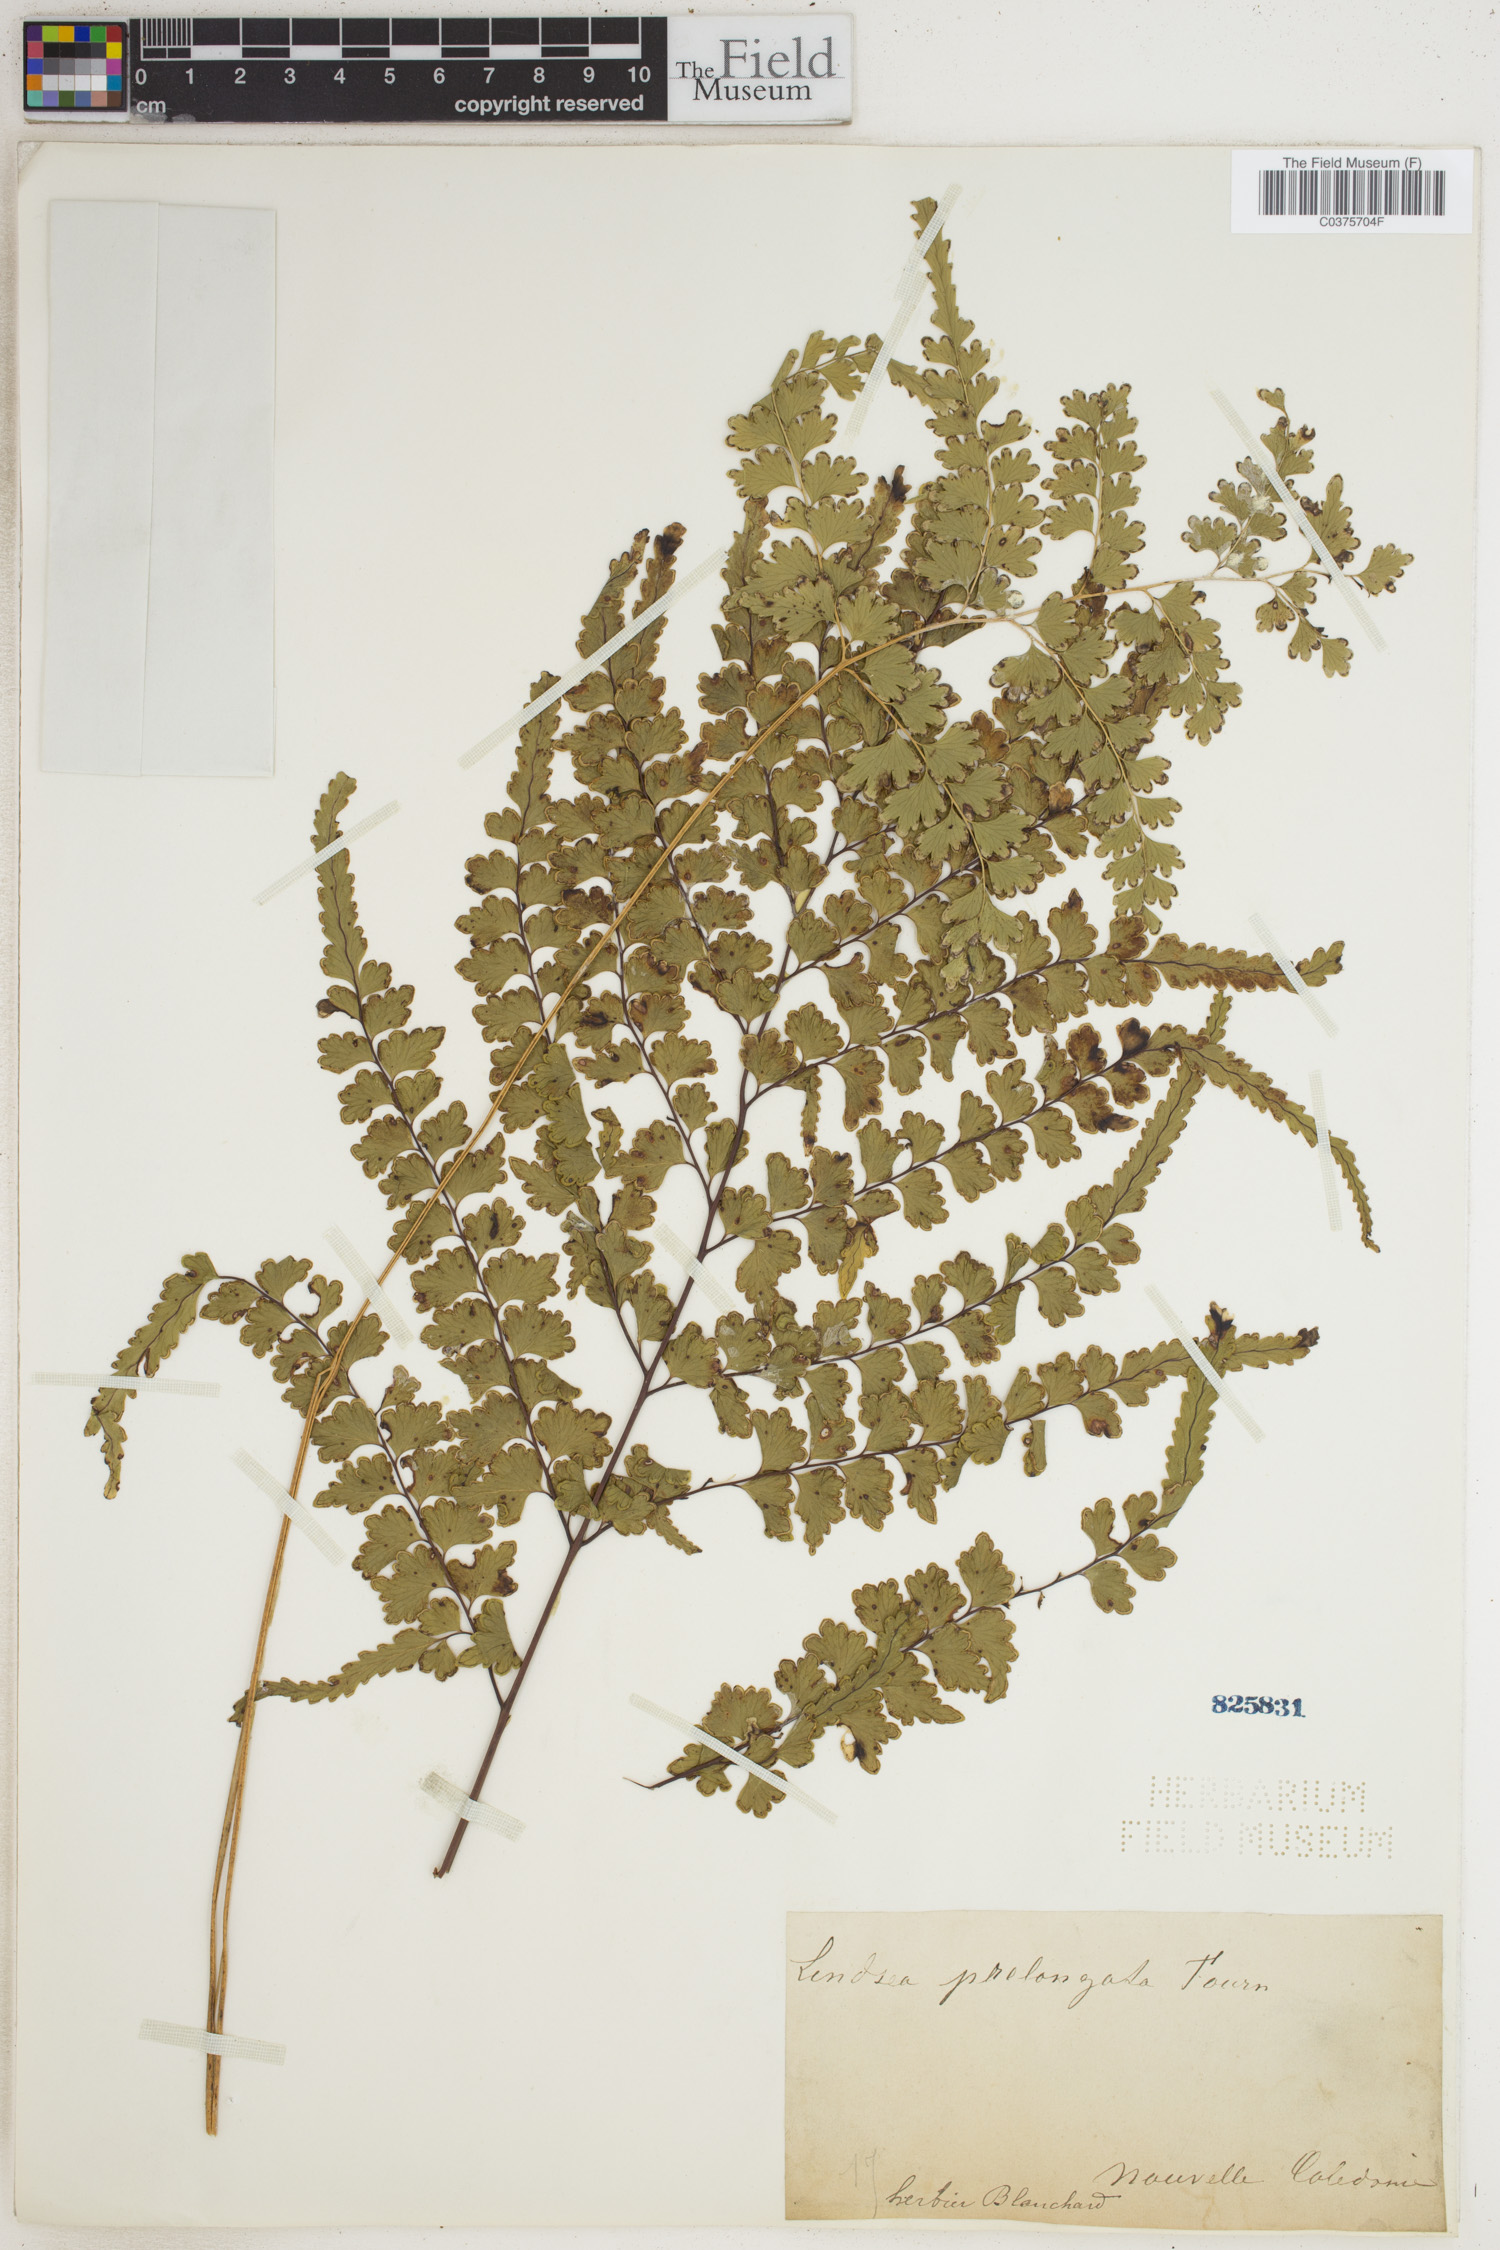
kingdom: Plantae
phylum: Tracheophyta
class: Polypodiopsida
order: Polypodiales
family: Lindsaeaceae
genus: Lindsaea
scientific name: Lindsaea prolongata
